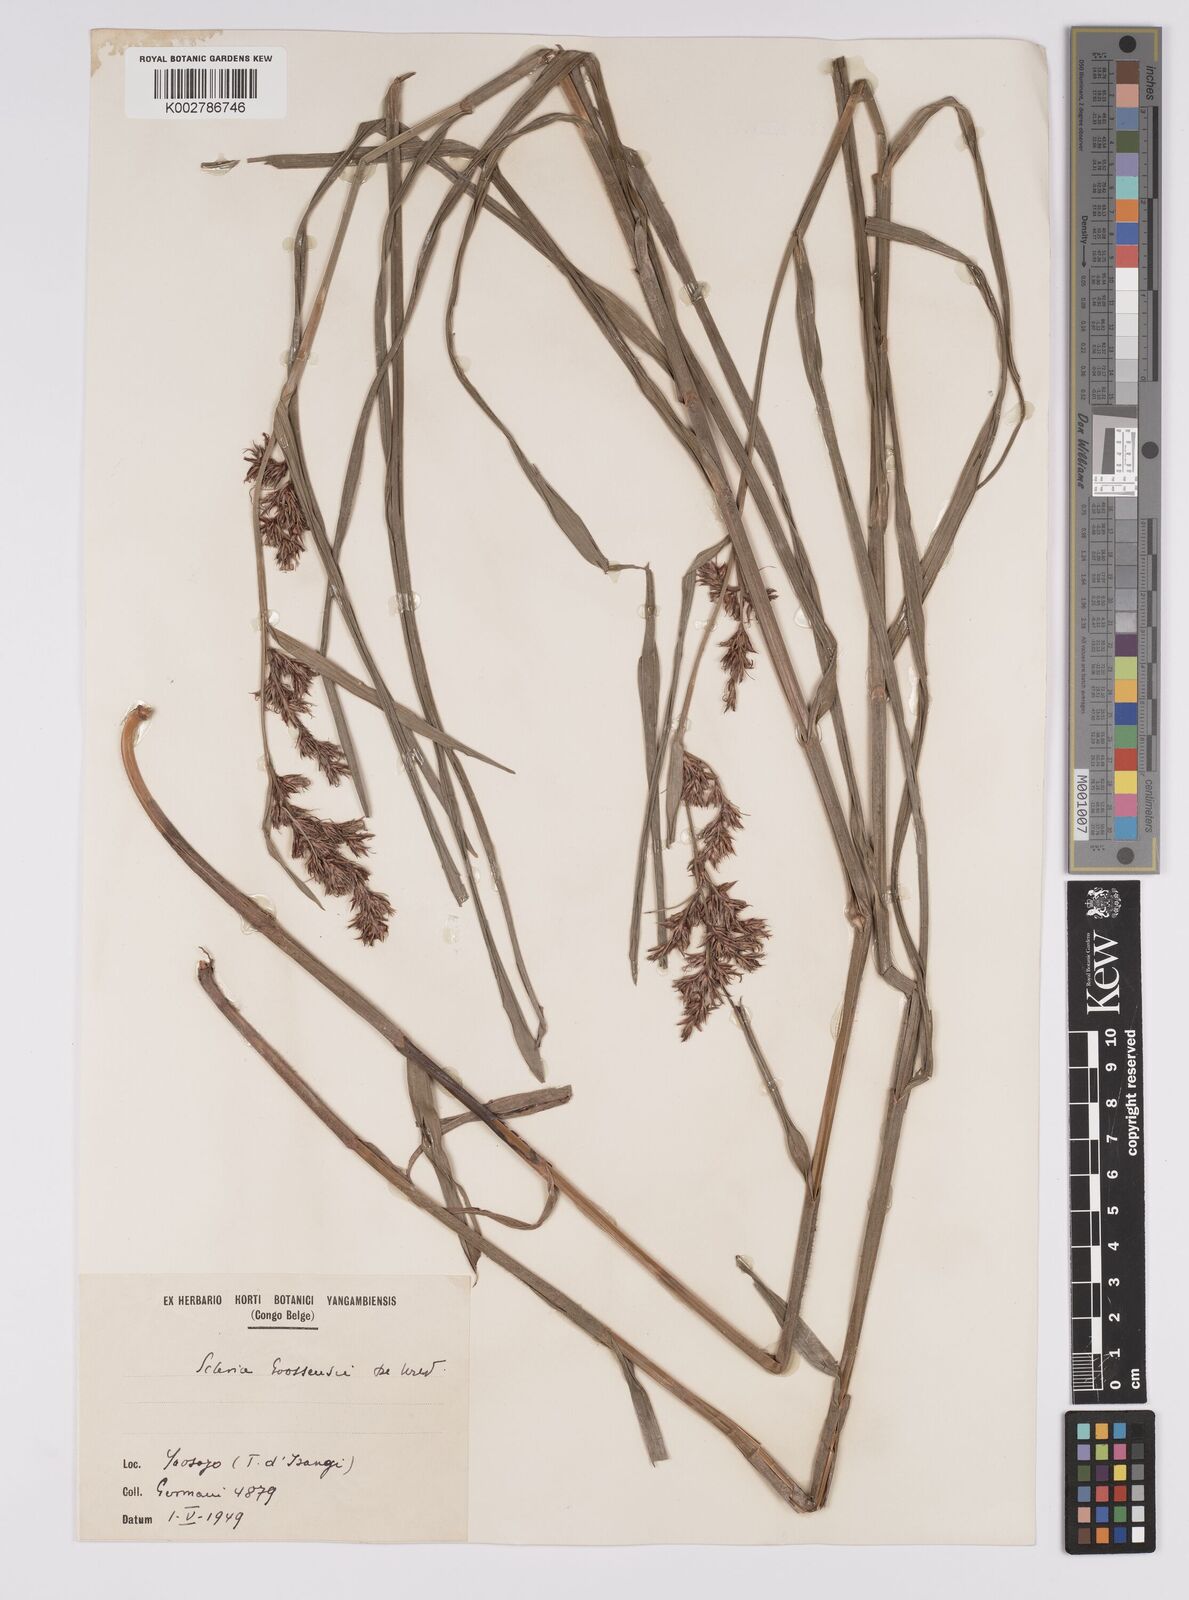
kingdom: Plantae
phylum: Tracheophyta
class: Liliopsida
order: Poales
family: Cyperaceae
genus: Scleria
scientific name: Scleria goossensii
